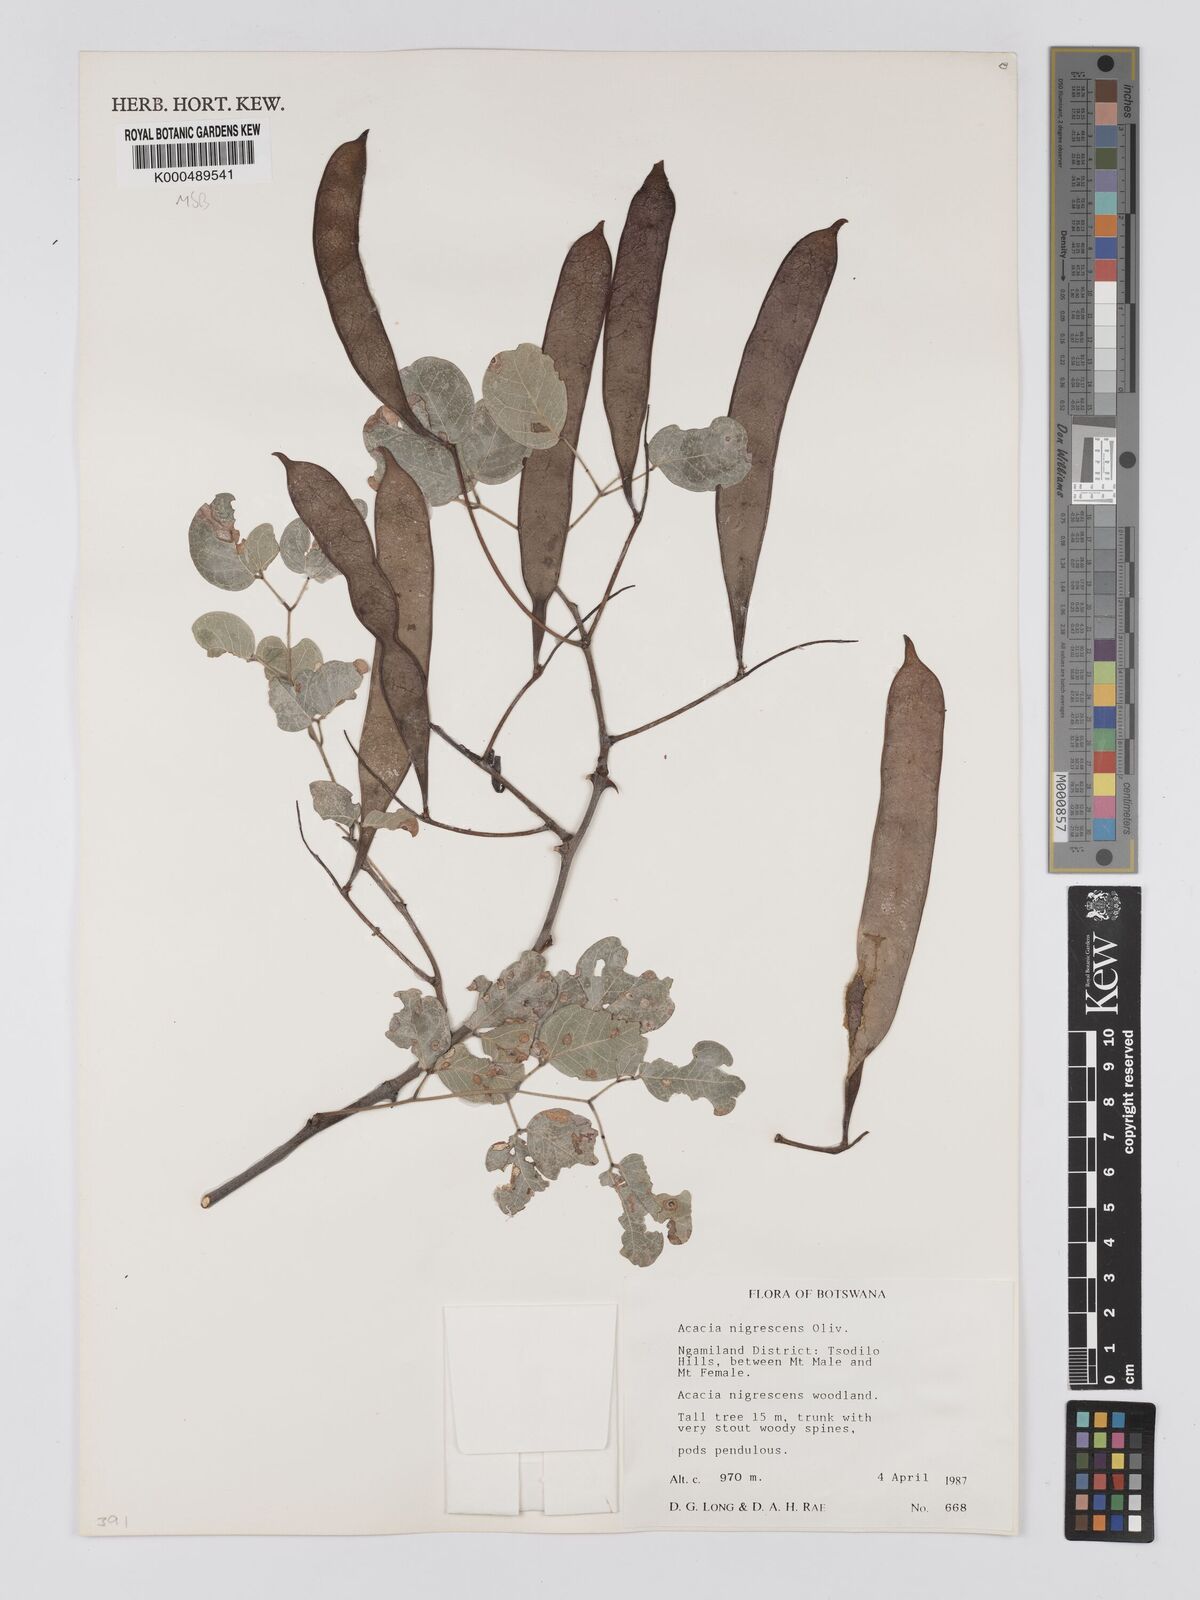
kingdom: Plantae
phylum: Tracheophyta
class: Magnoliopsida
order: Fabales
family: Fabaceae
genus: Senegalia
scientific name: Senegalia nigrescens
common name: Knobthorn
